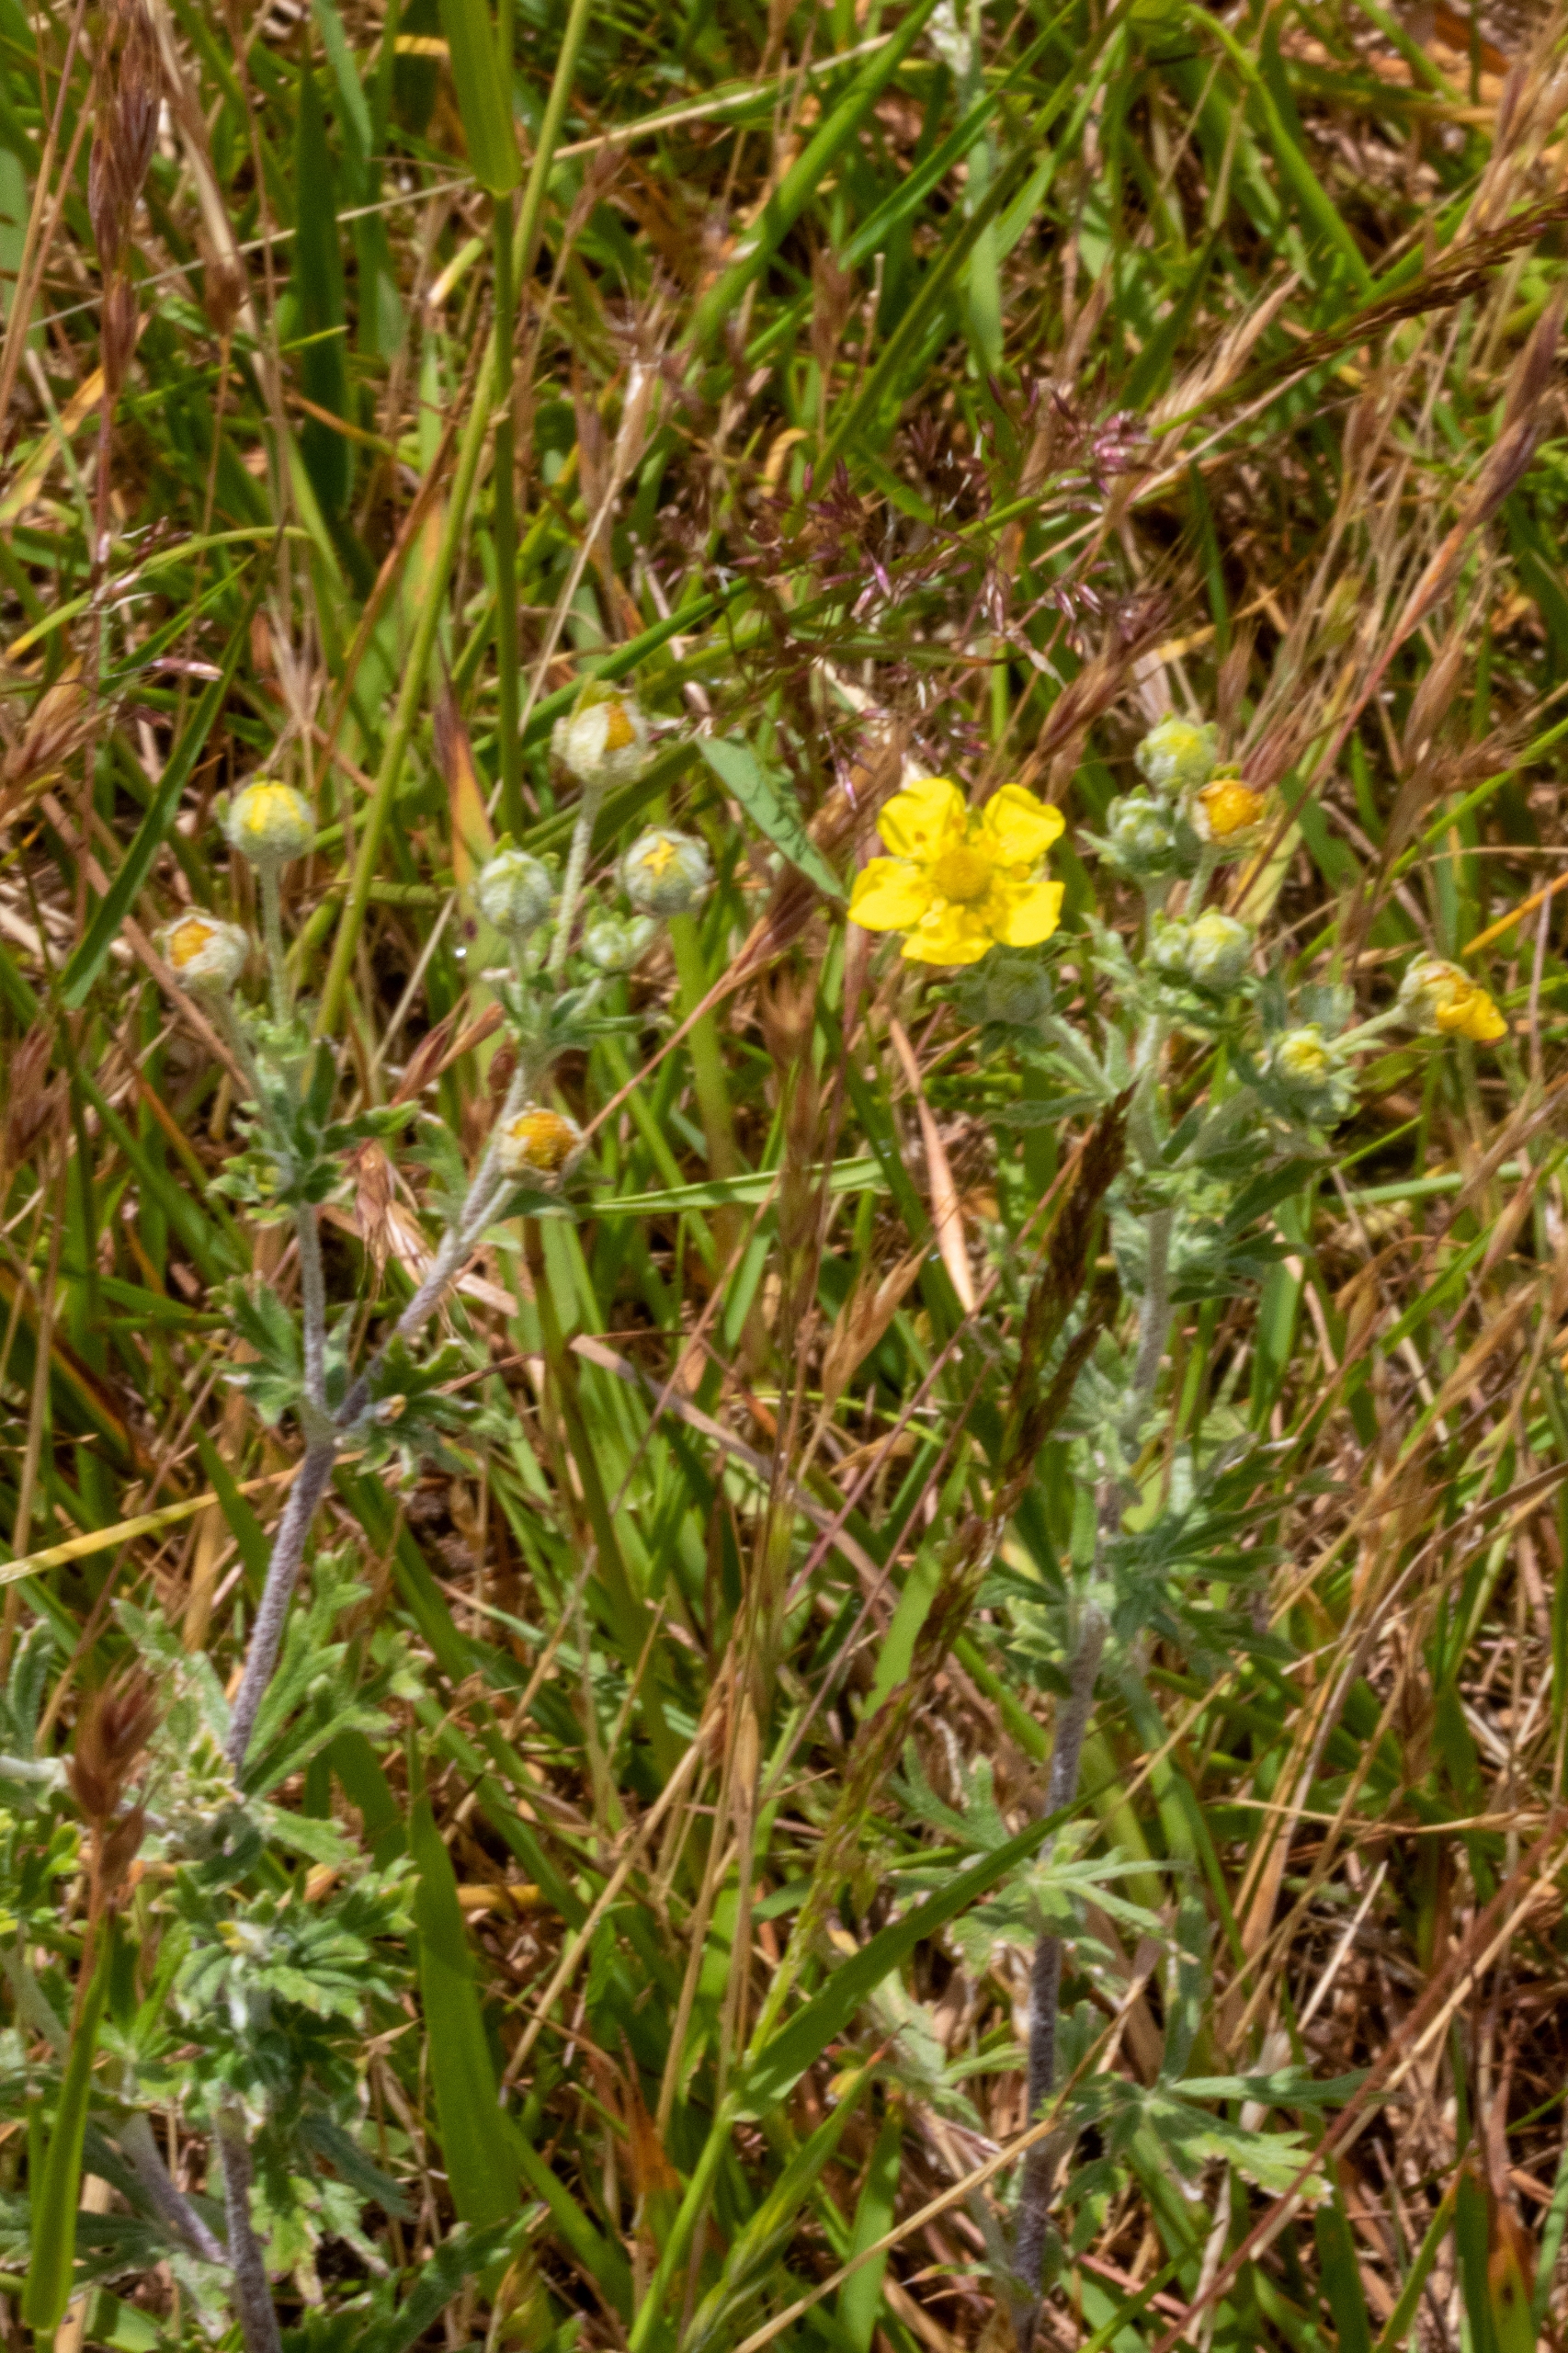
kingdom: Plantae
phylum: Tracheophyta
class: Magnoliopsida
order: Rosales
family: Rosaceae
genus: Potentilla
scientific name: Potentilla argentea
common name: Sølv-potentil
